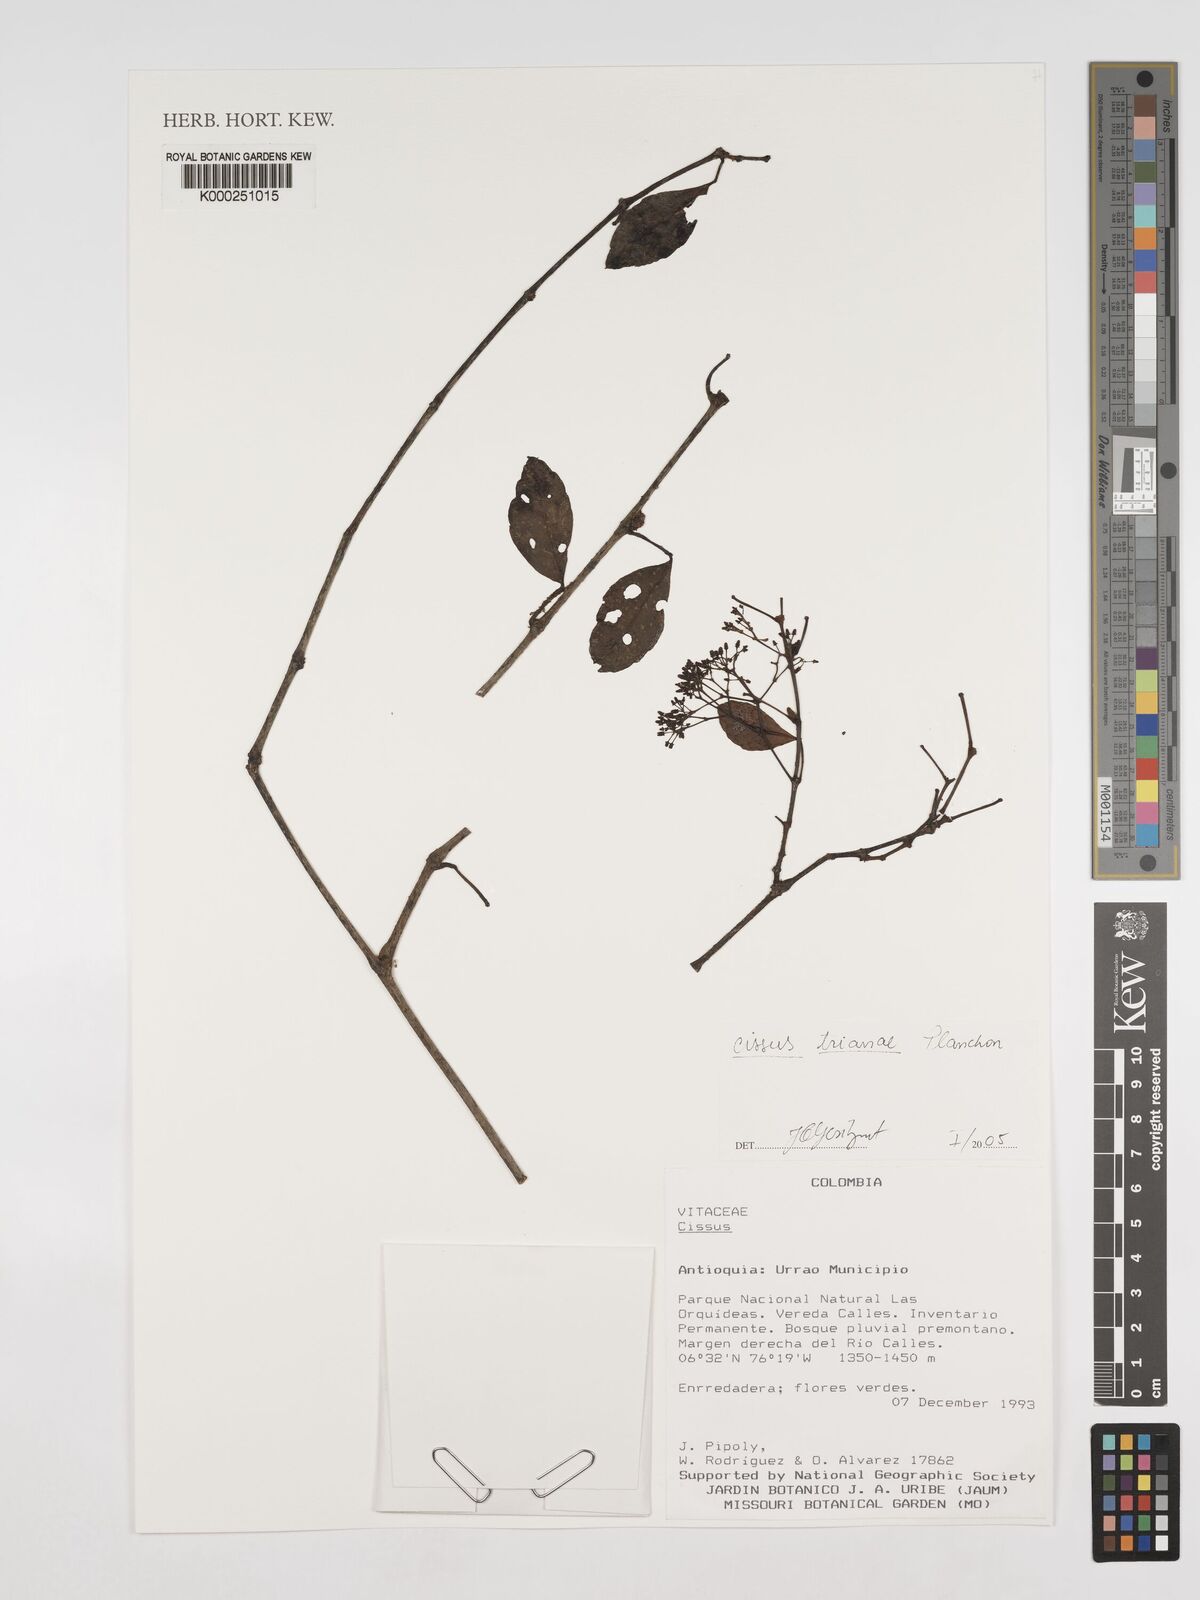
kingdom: Plantae
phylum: Tracheophyta
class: Magnoliopsida
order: Vitales
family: Vitaceae
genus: Cissus
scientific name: Cissus trianae
